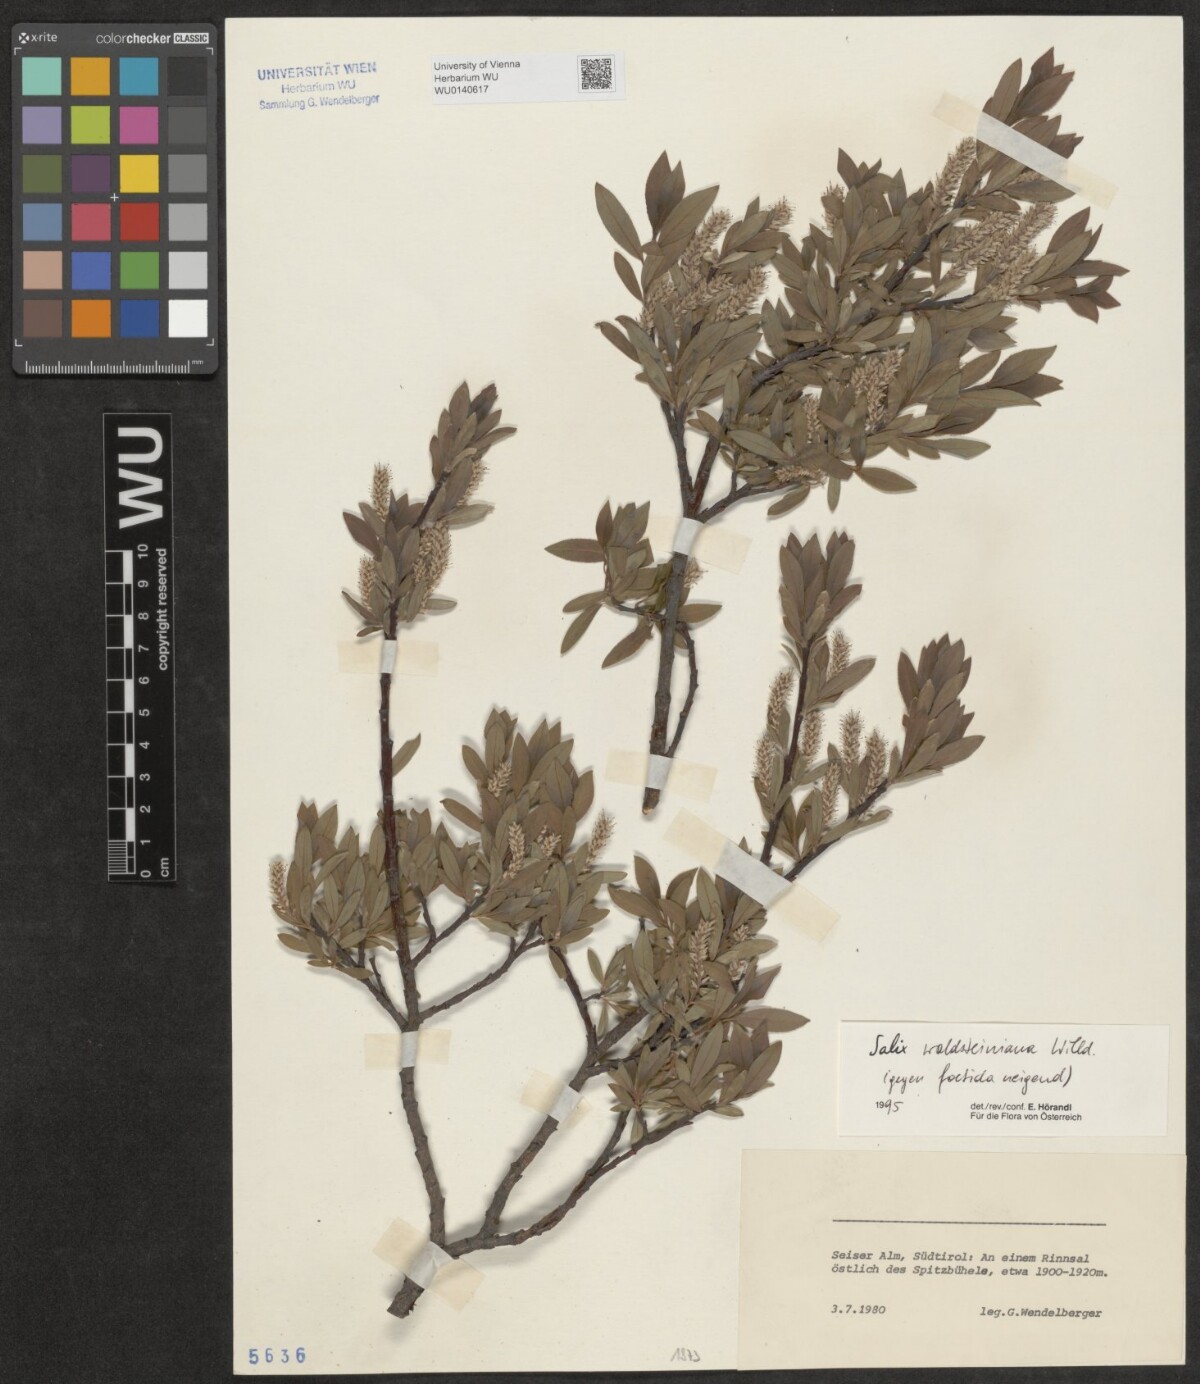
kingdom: Plantae
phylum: Tracheophyta
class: Magnoliopsida
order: Malpighiales
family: Salicaceae
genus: Salix
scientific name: Salix waldsteiniana
